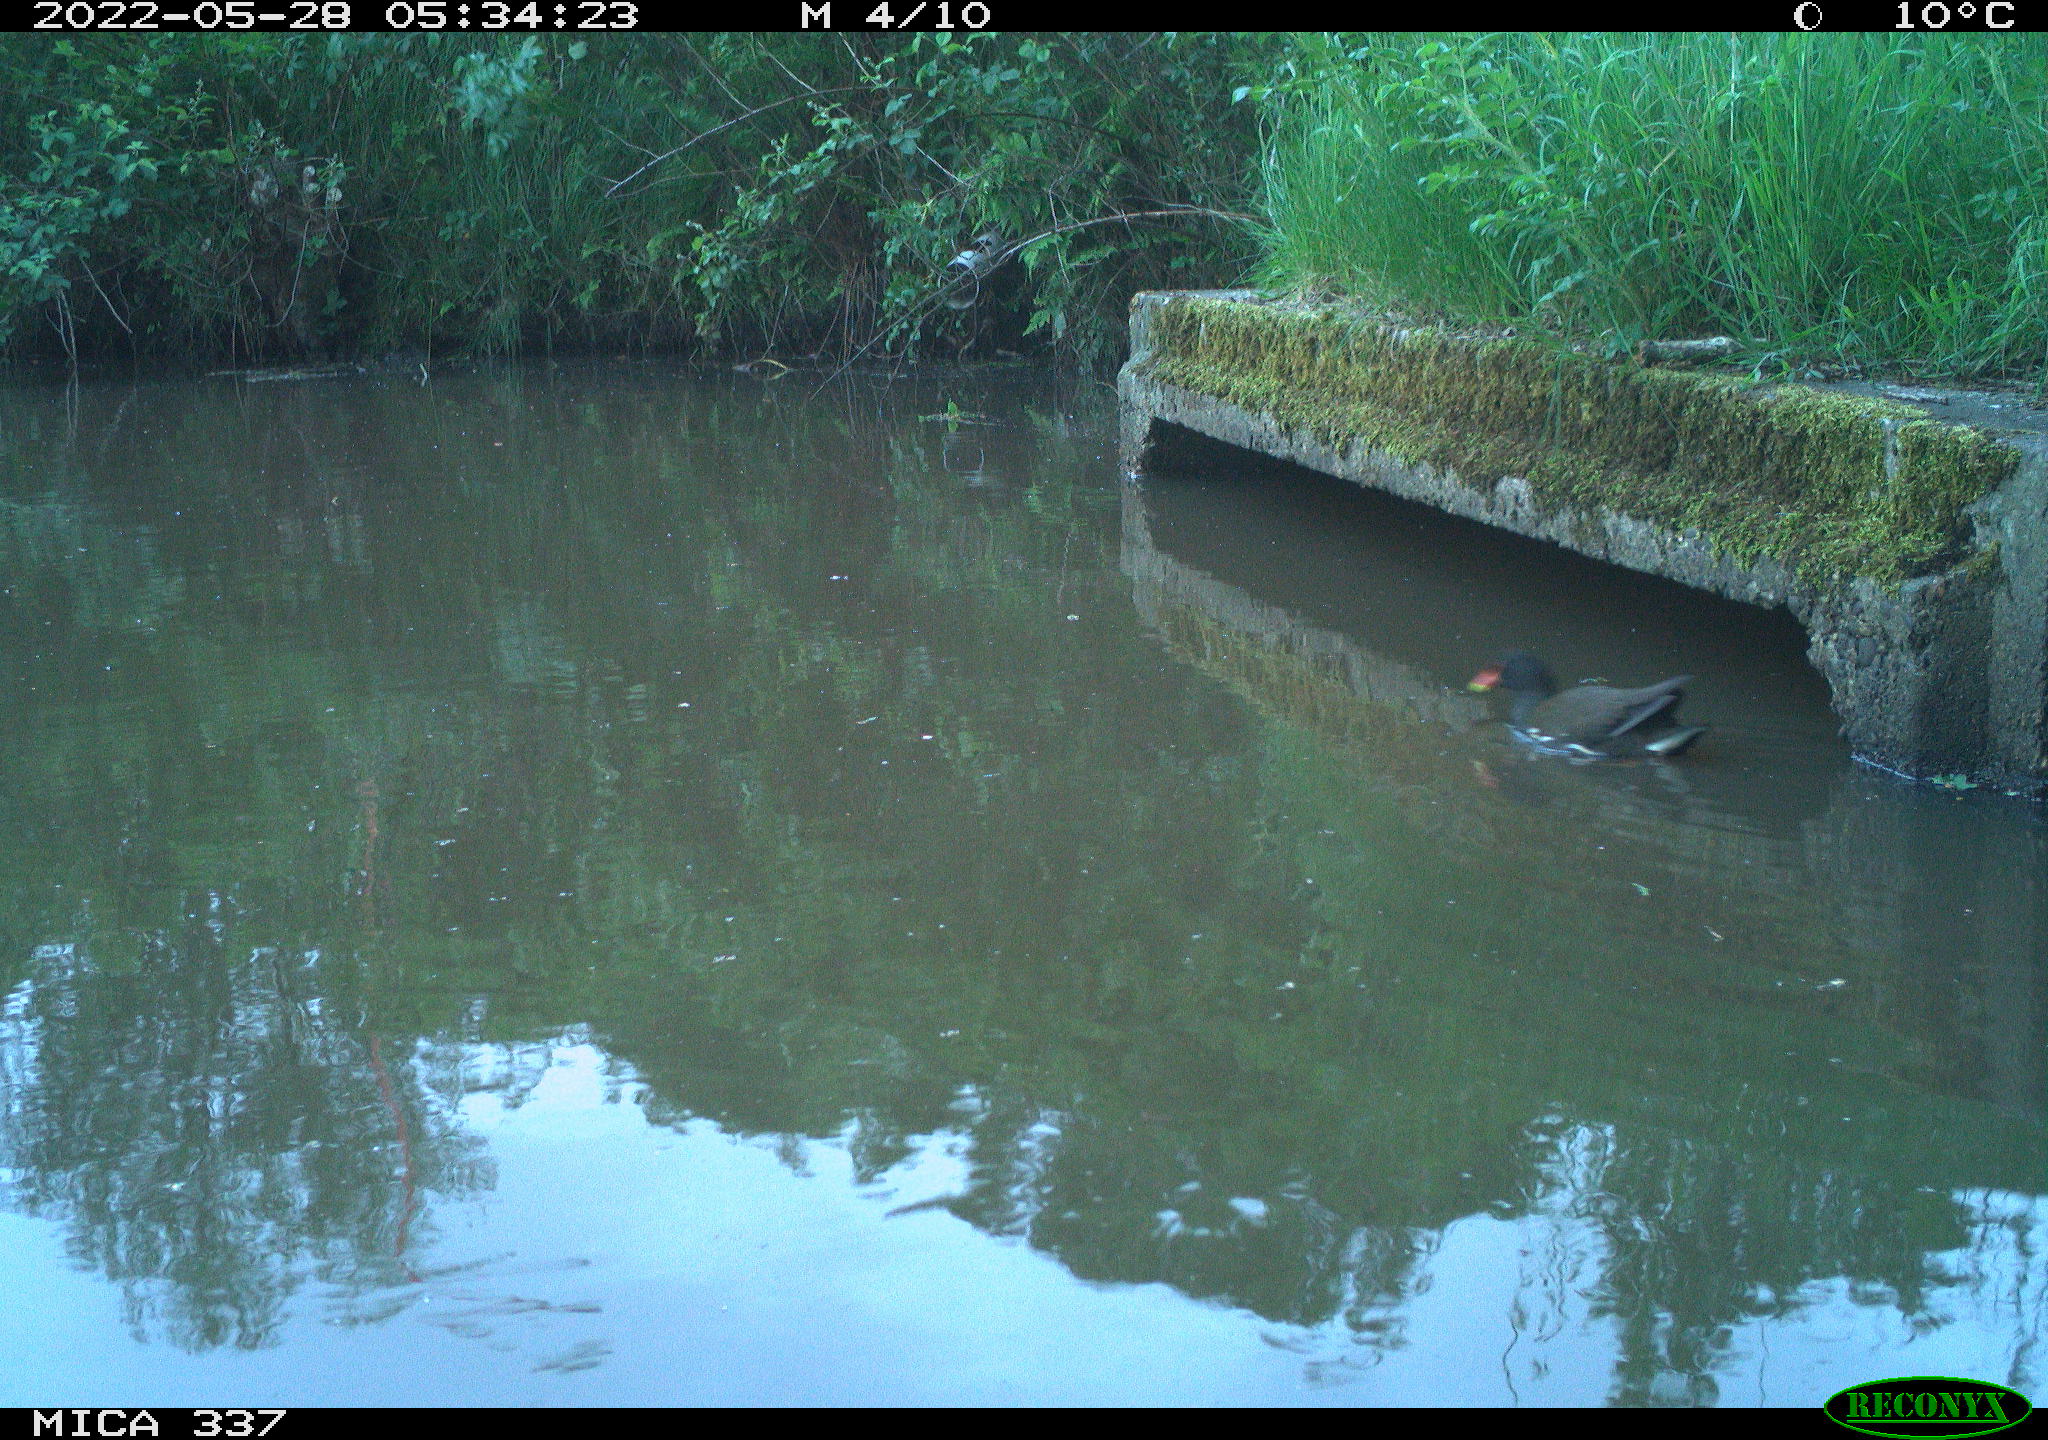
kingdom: Animalia
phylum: Chordata
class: Aves
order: Gruiformes
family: Rallidae
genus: Gallinula
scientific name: Gallinula chloropus
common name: Common moorhen
